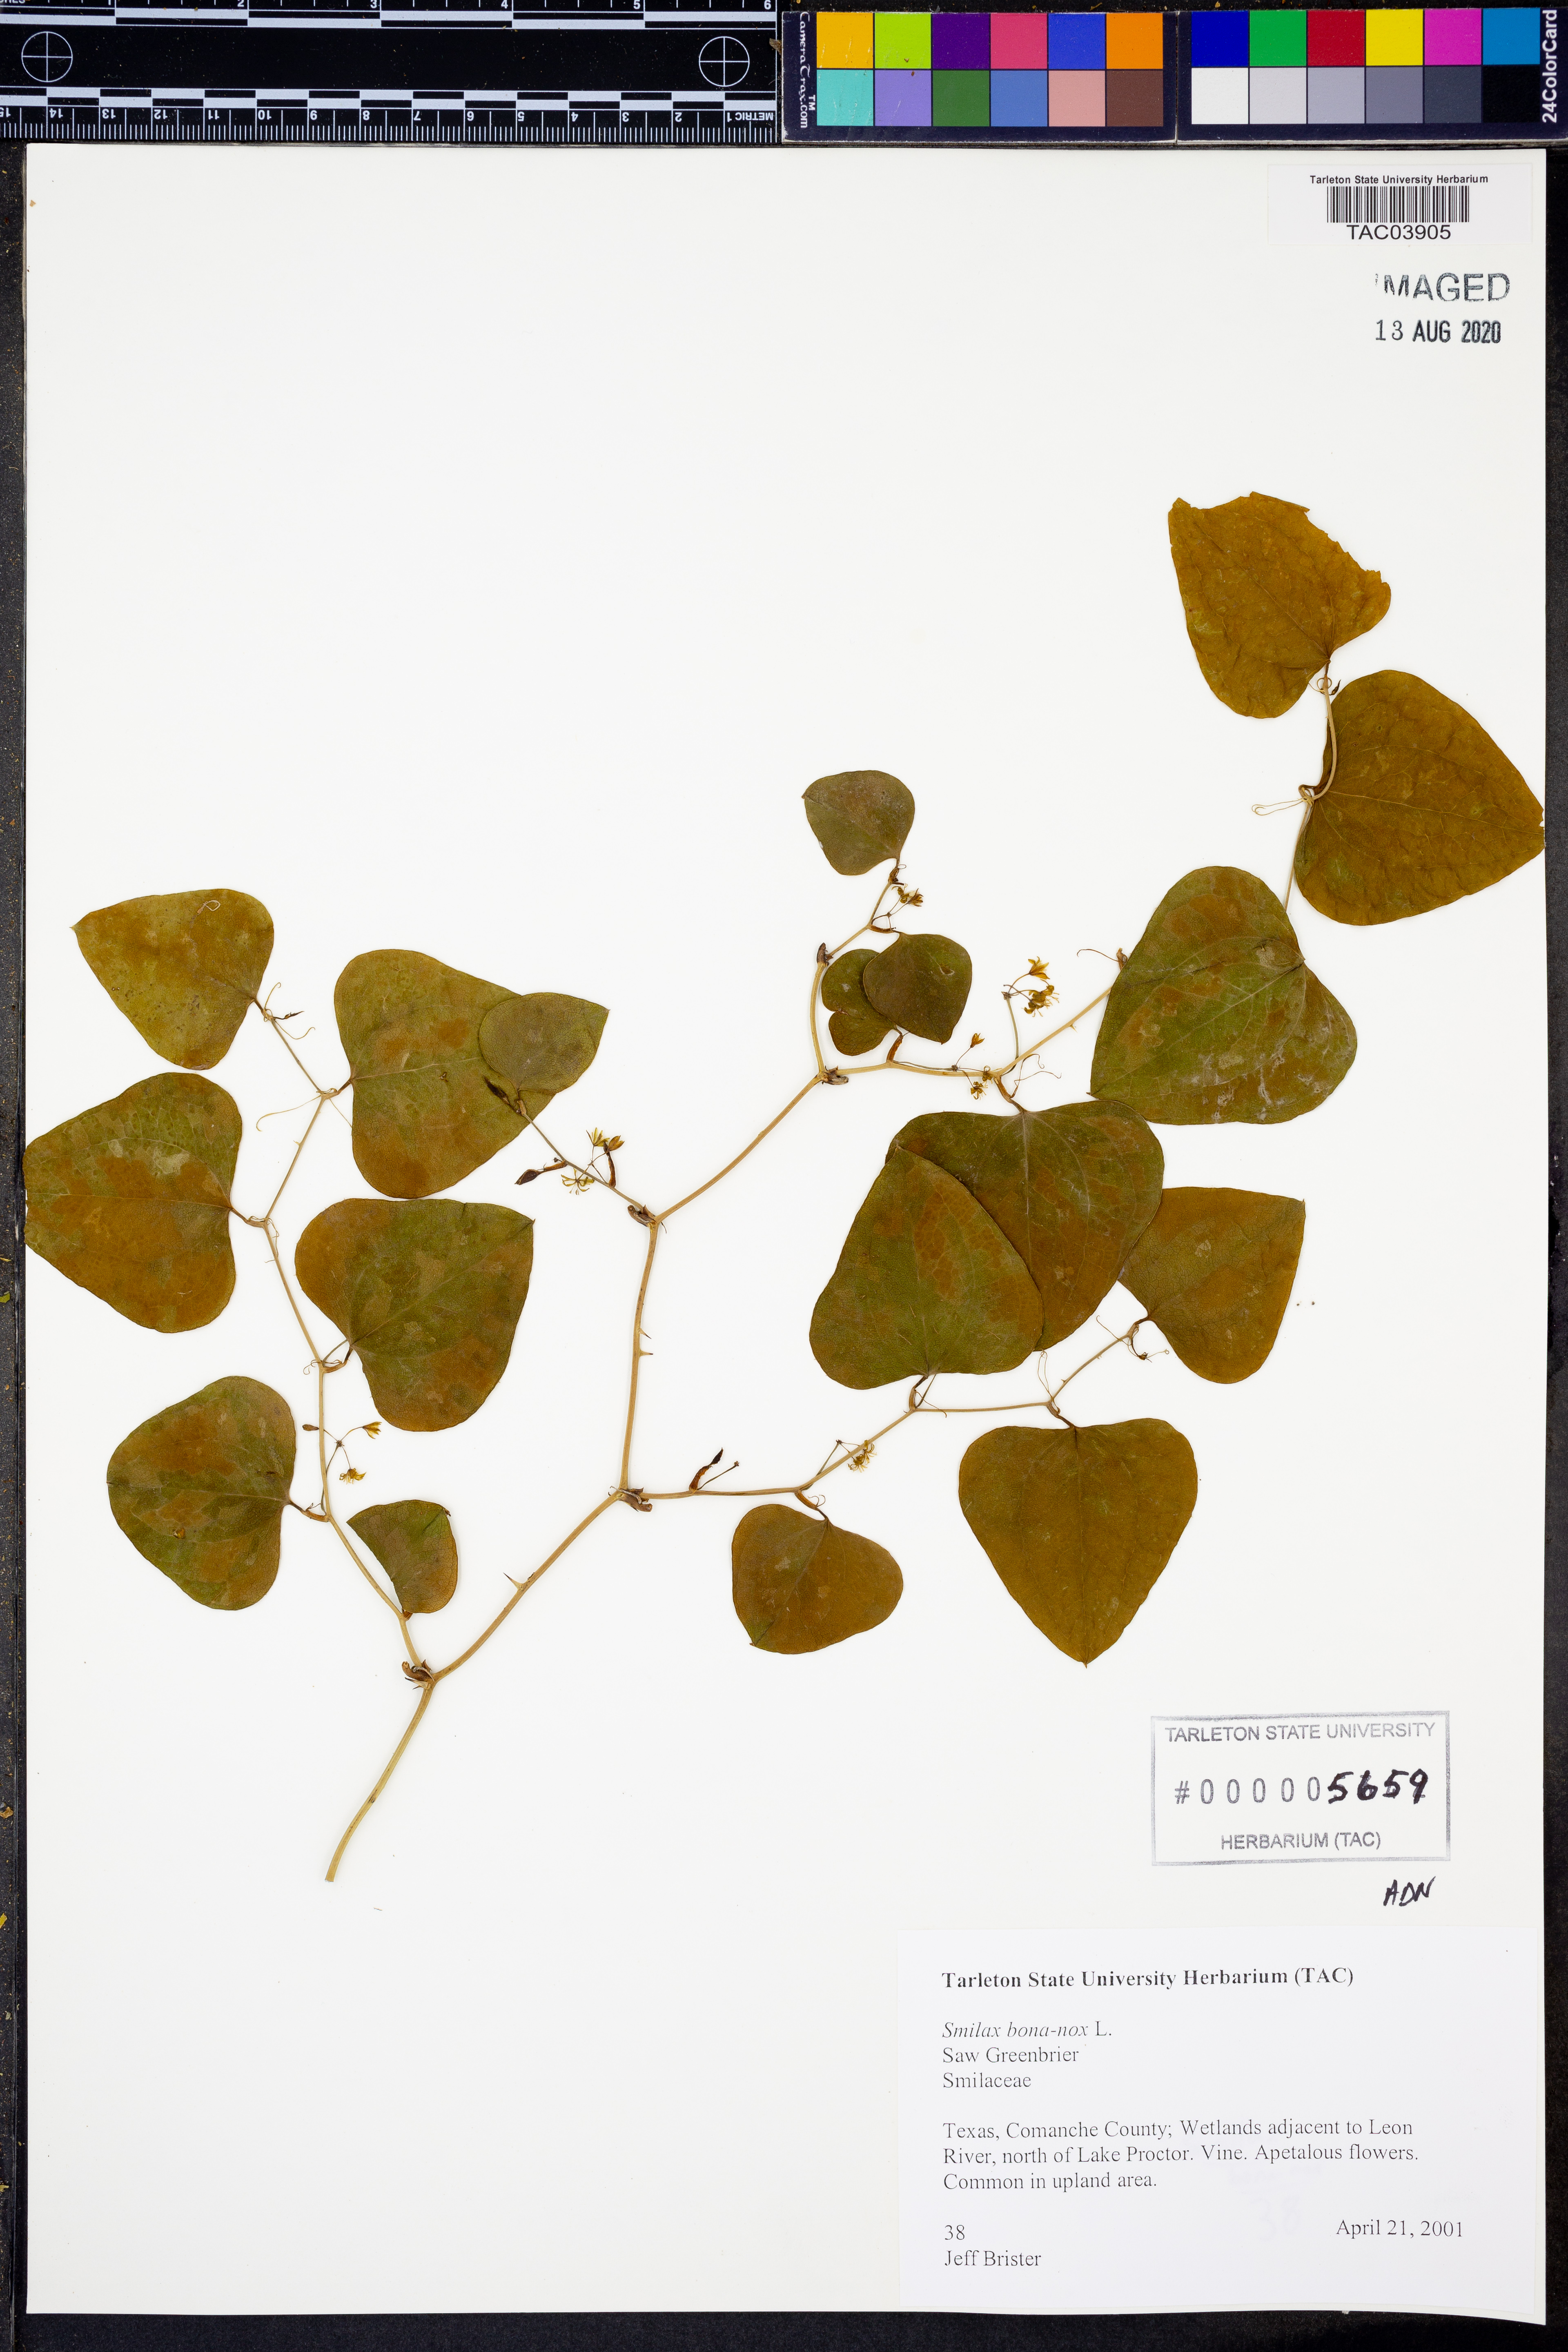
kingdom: Plantae
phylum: Tracheophyta
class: Liliopsida
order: Liliales
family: Smilacaceae
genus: Smilax
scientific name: Smilax bona-nox
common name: Catbrier
